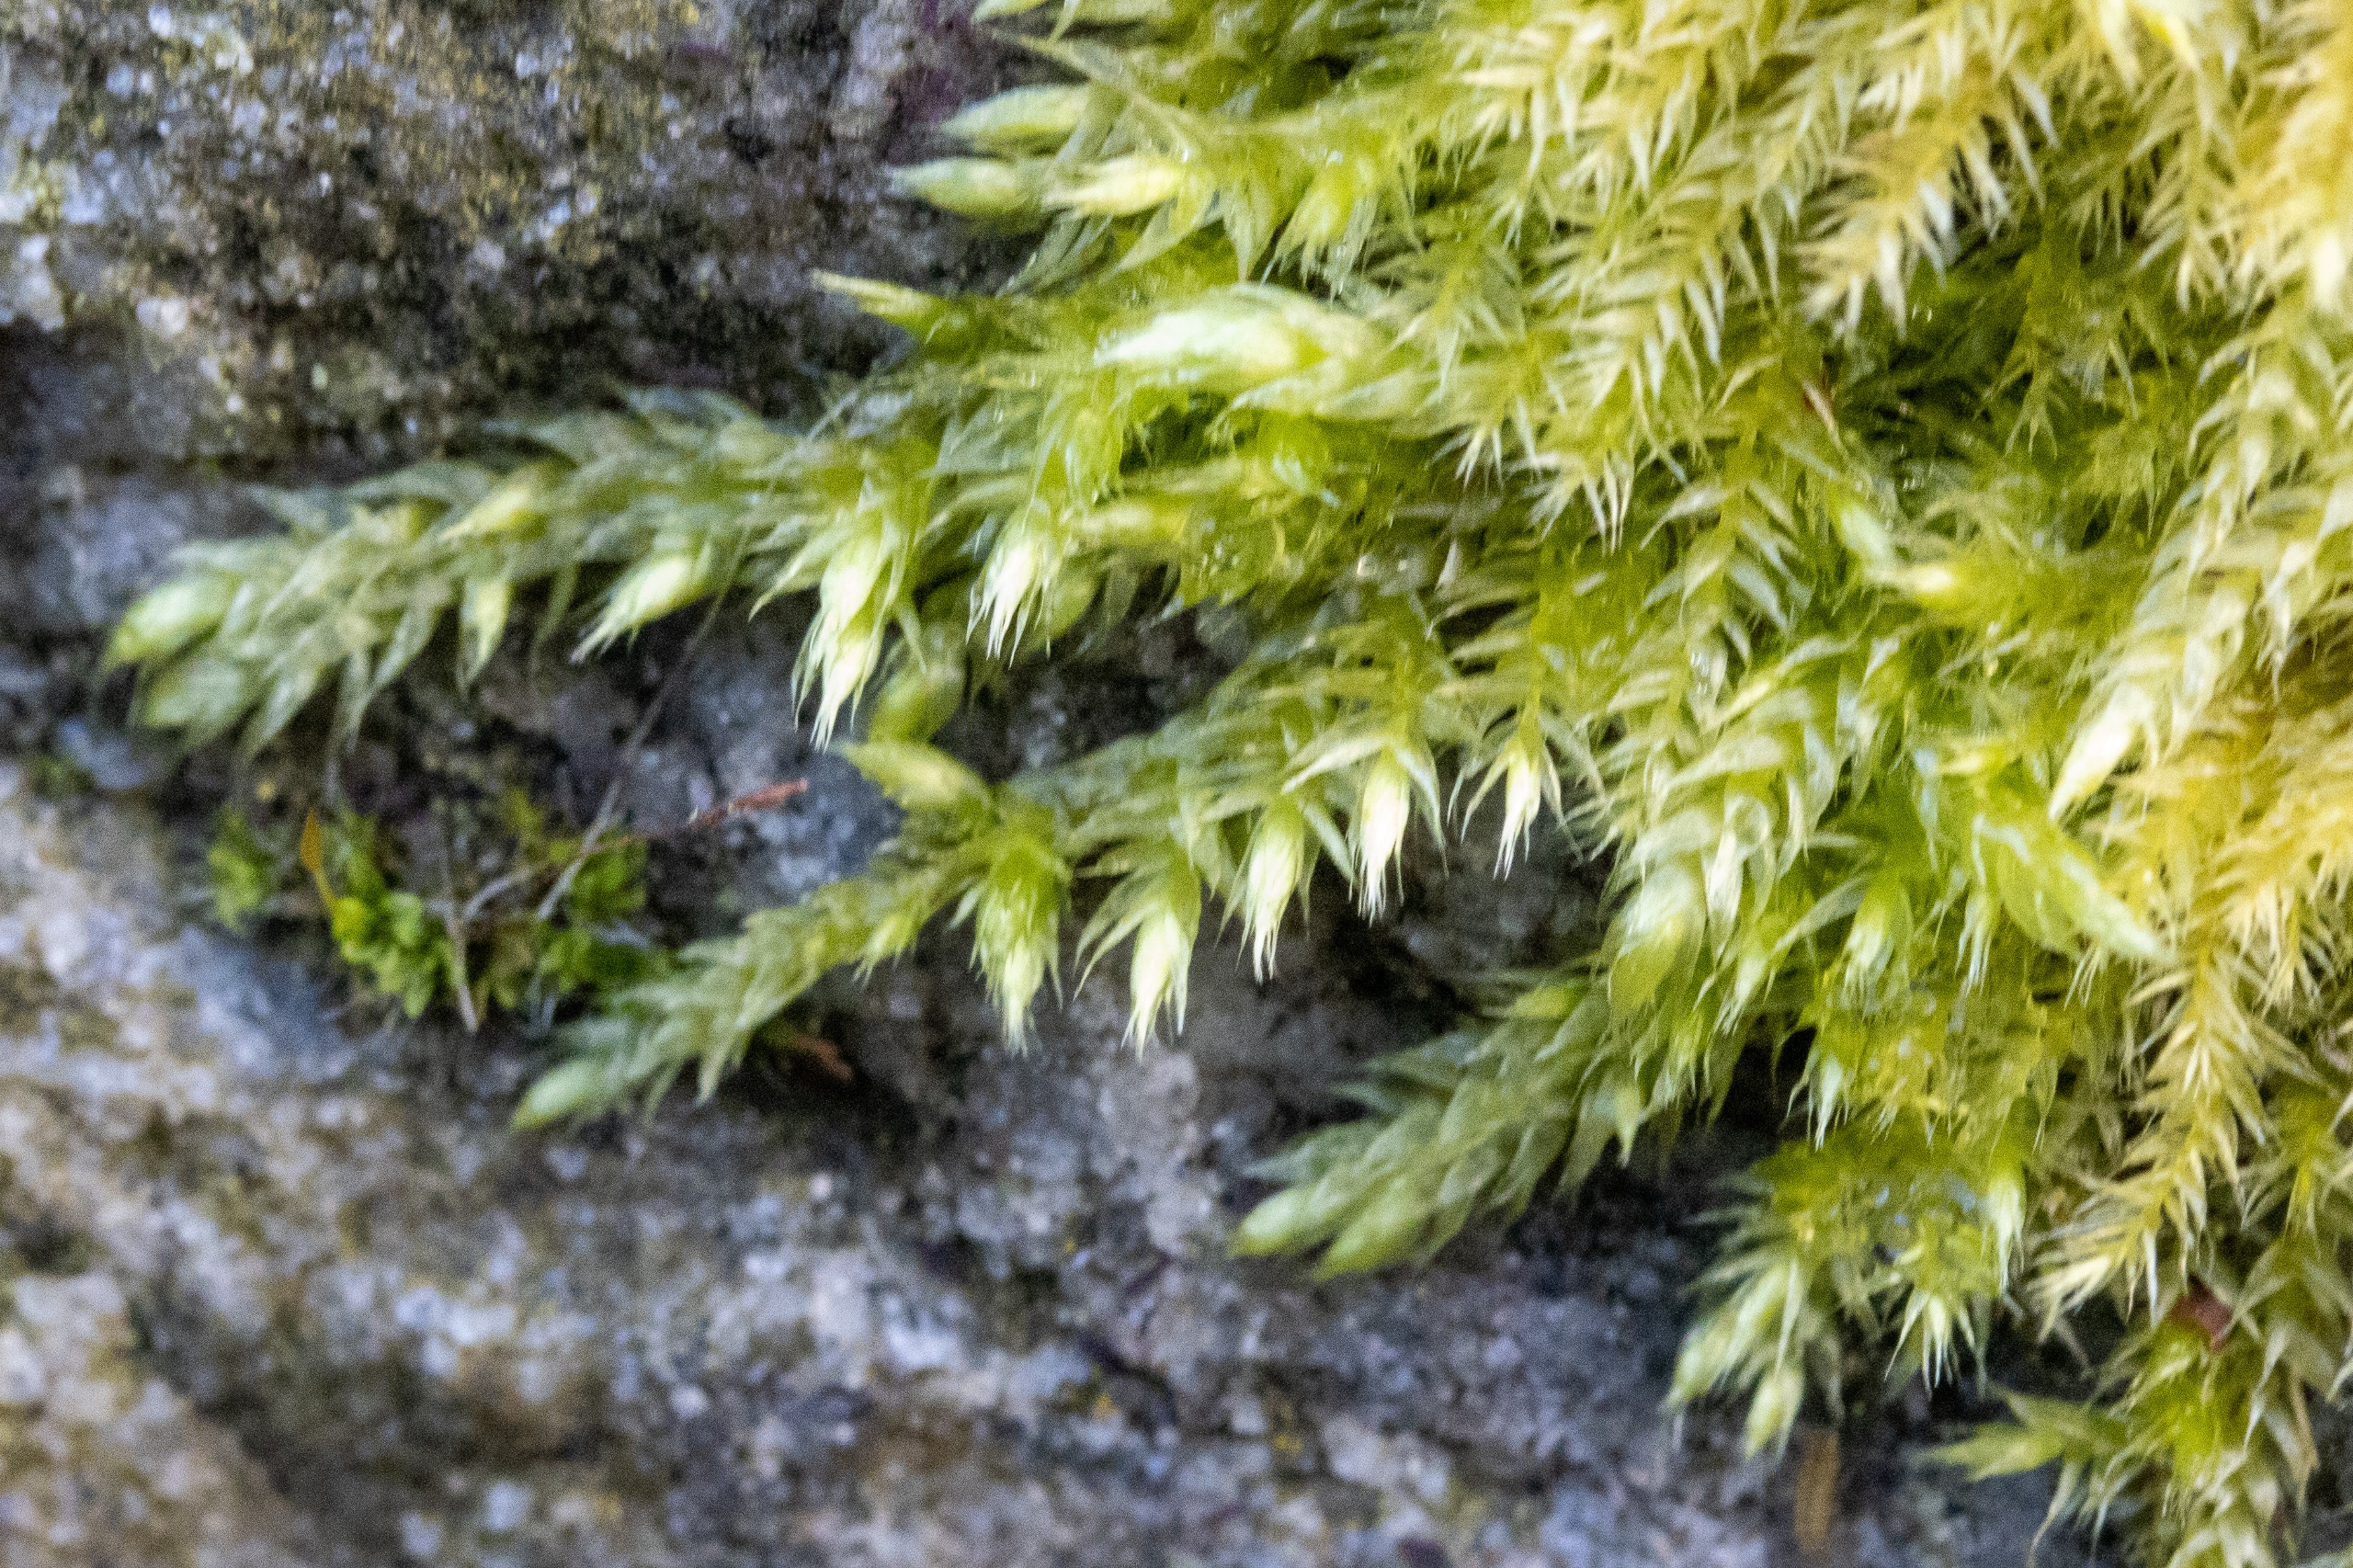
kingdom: Plantae
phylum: Bryophyta
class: Bryopsida
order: Hypnales
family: Brachytheciaceae
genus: Brachythecium
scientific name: Brachythecium
